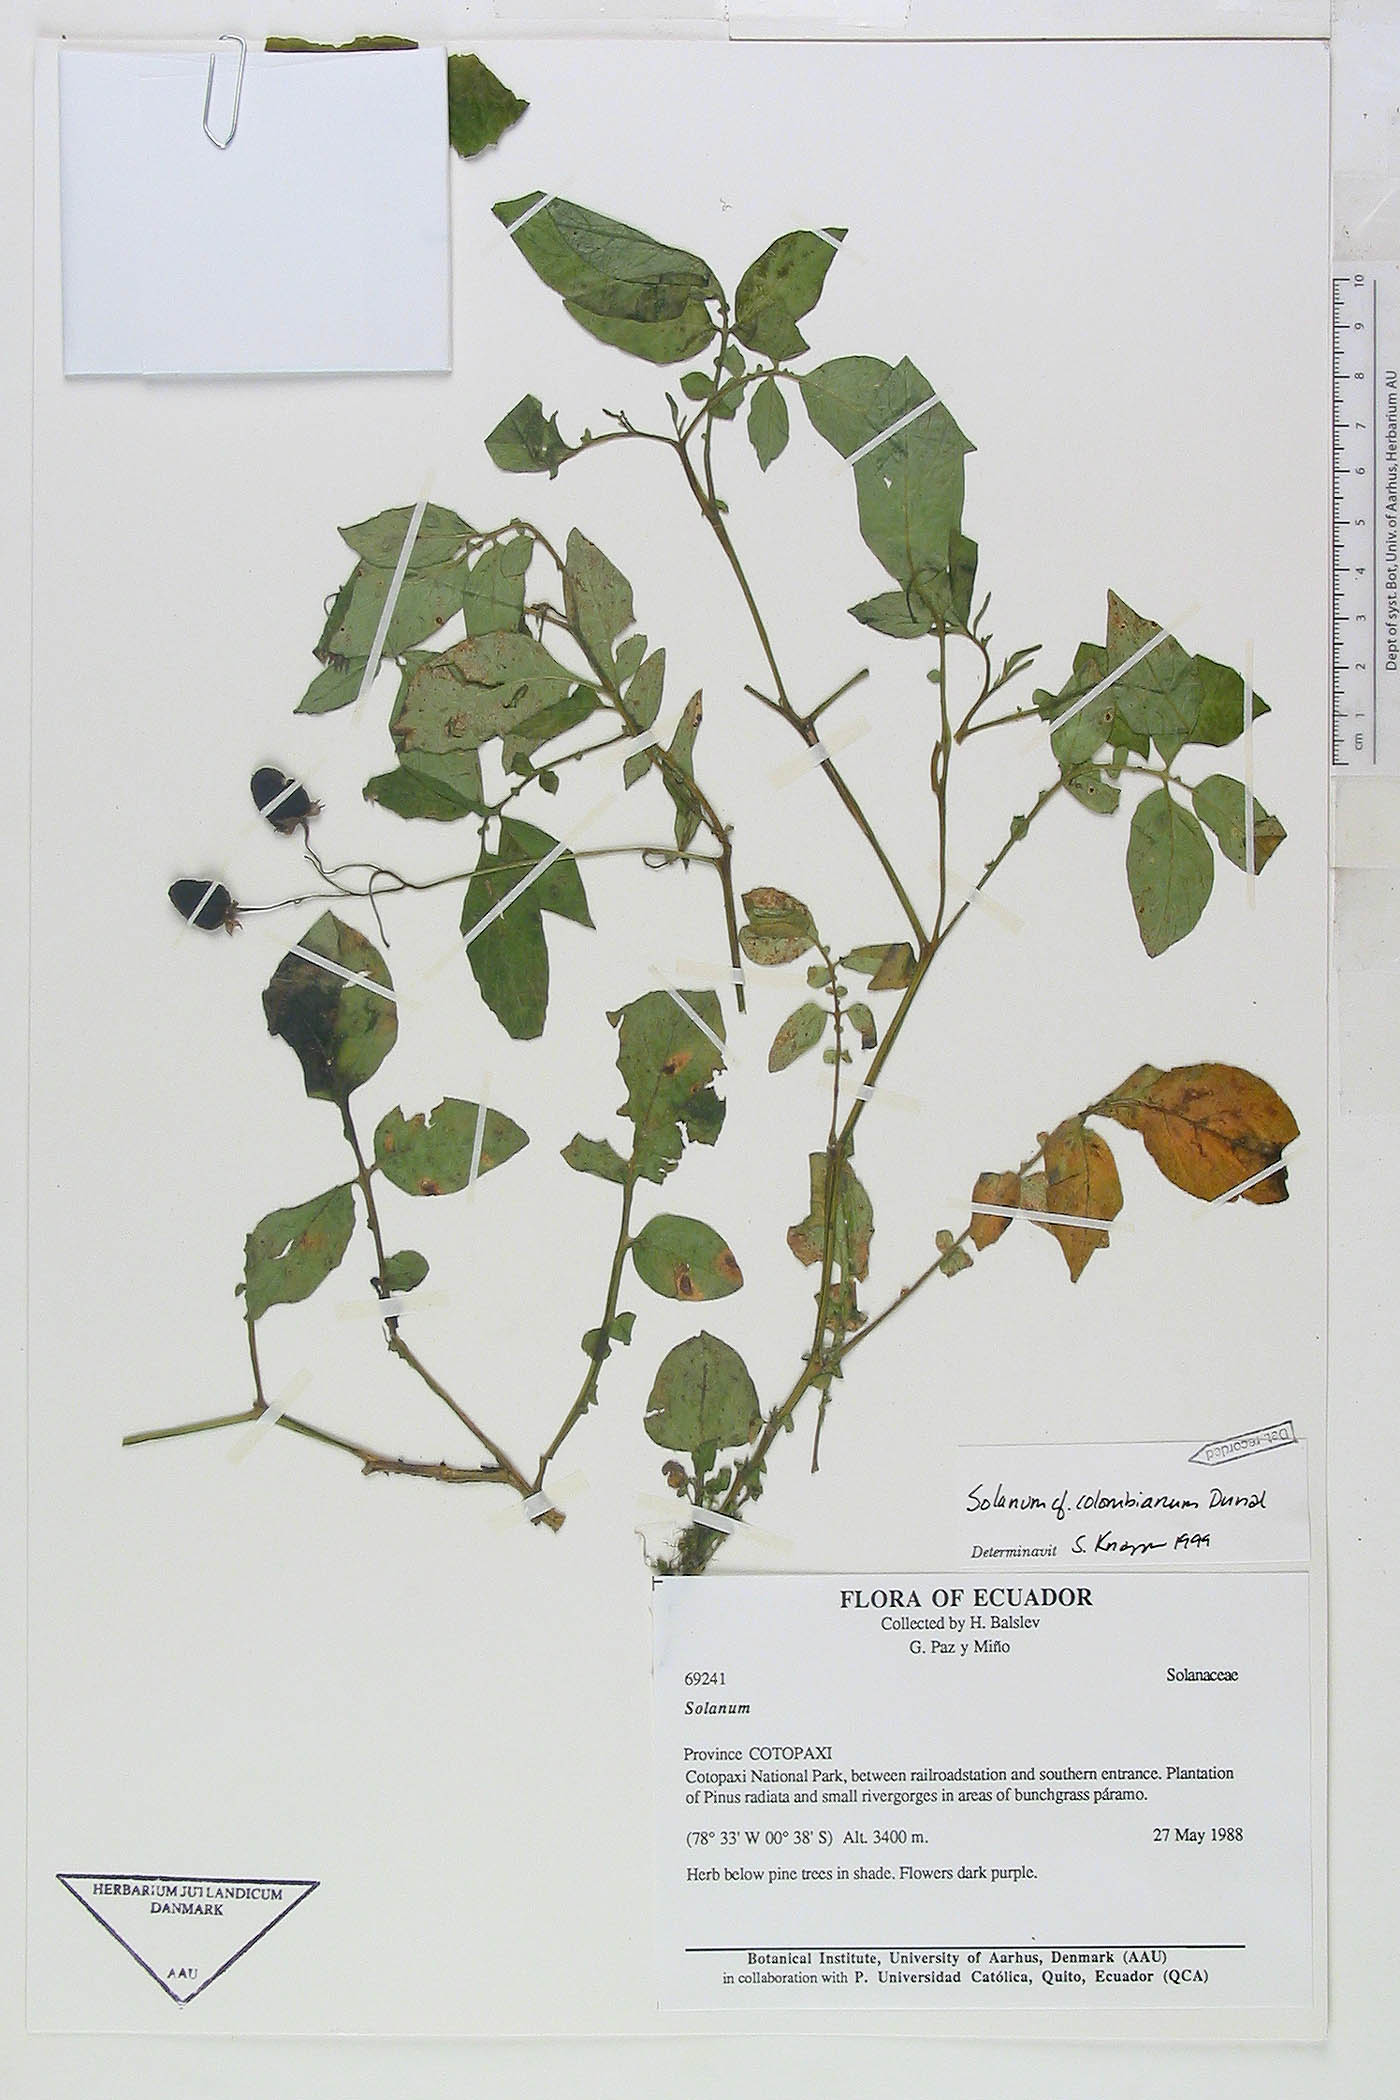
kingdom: Plantae
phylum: Tracheophyta
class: Magnoliopsida
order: Solanales
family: Solanaceae
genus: Solanum
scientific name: Solanum colombianum
